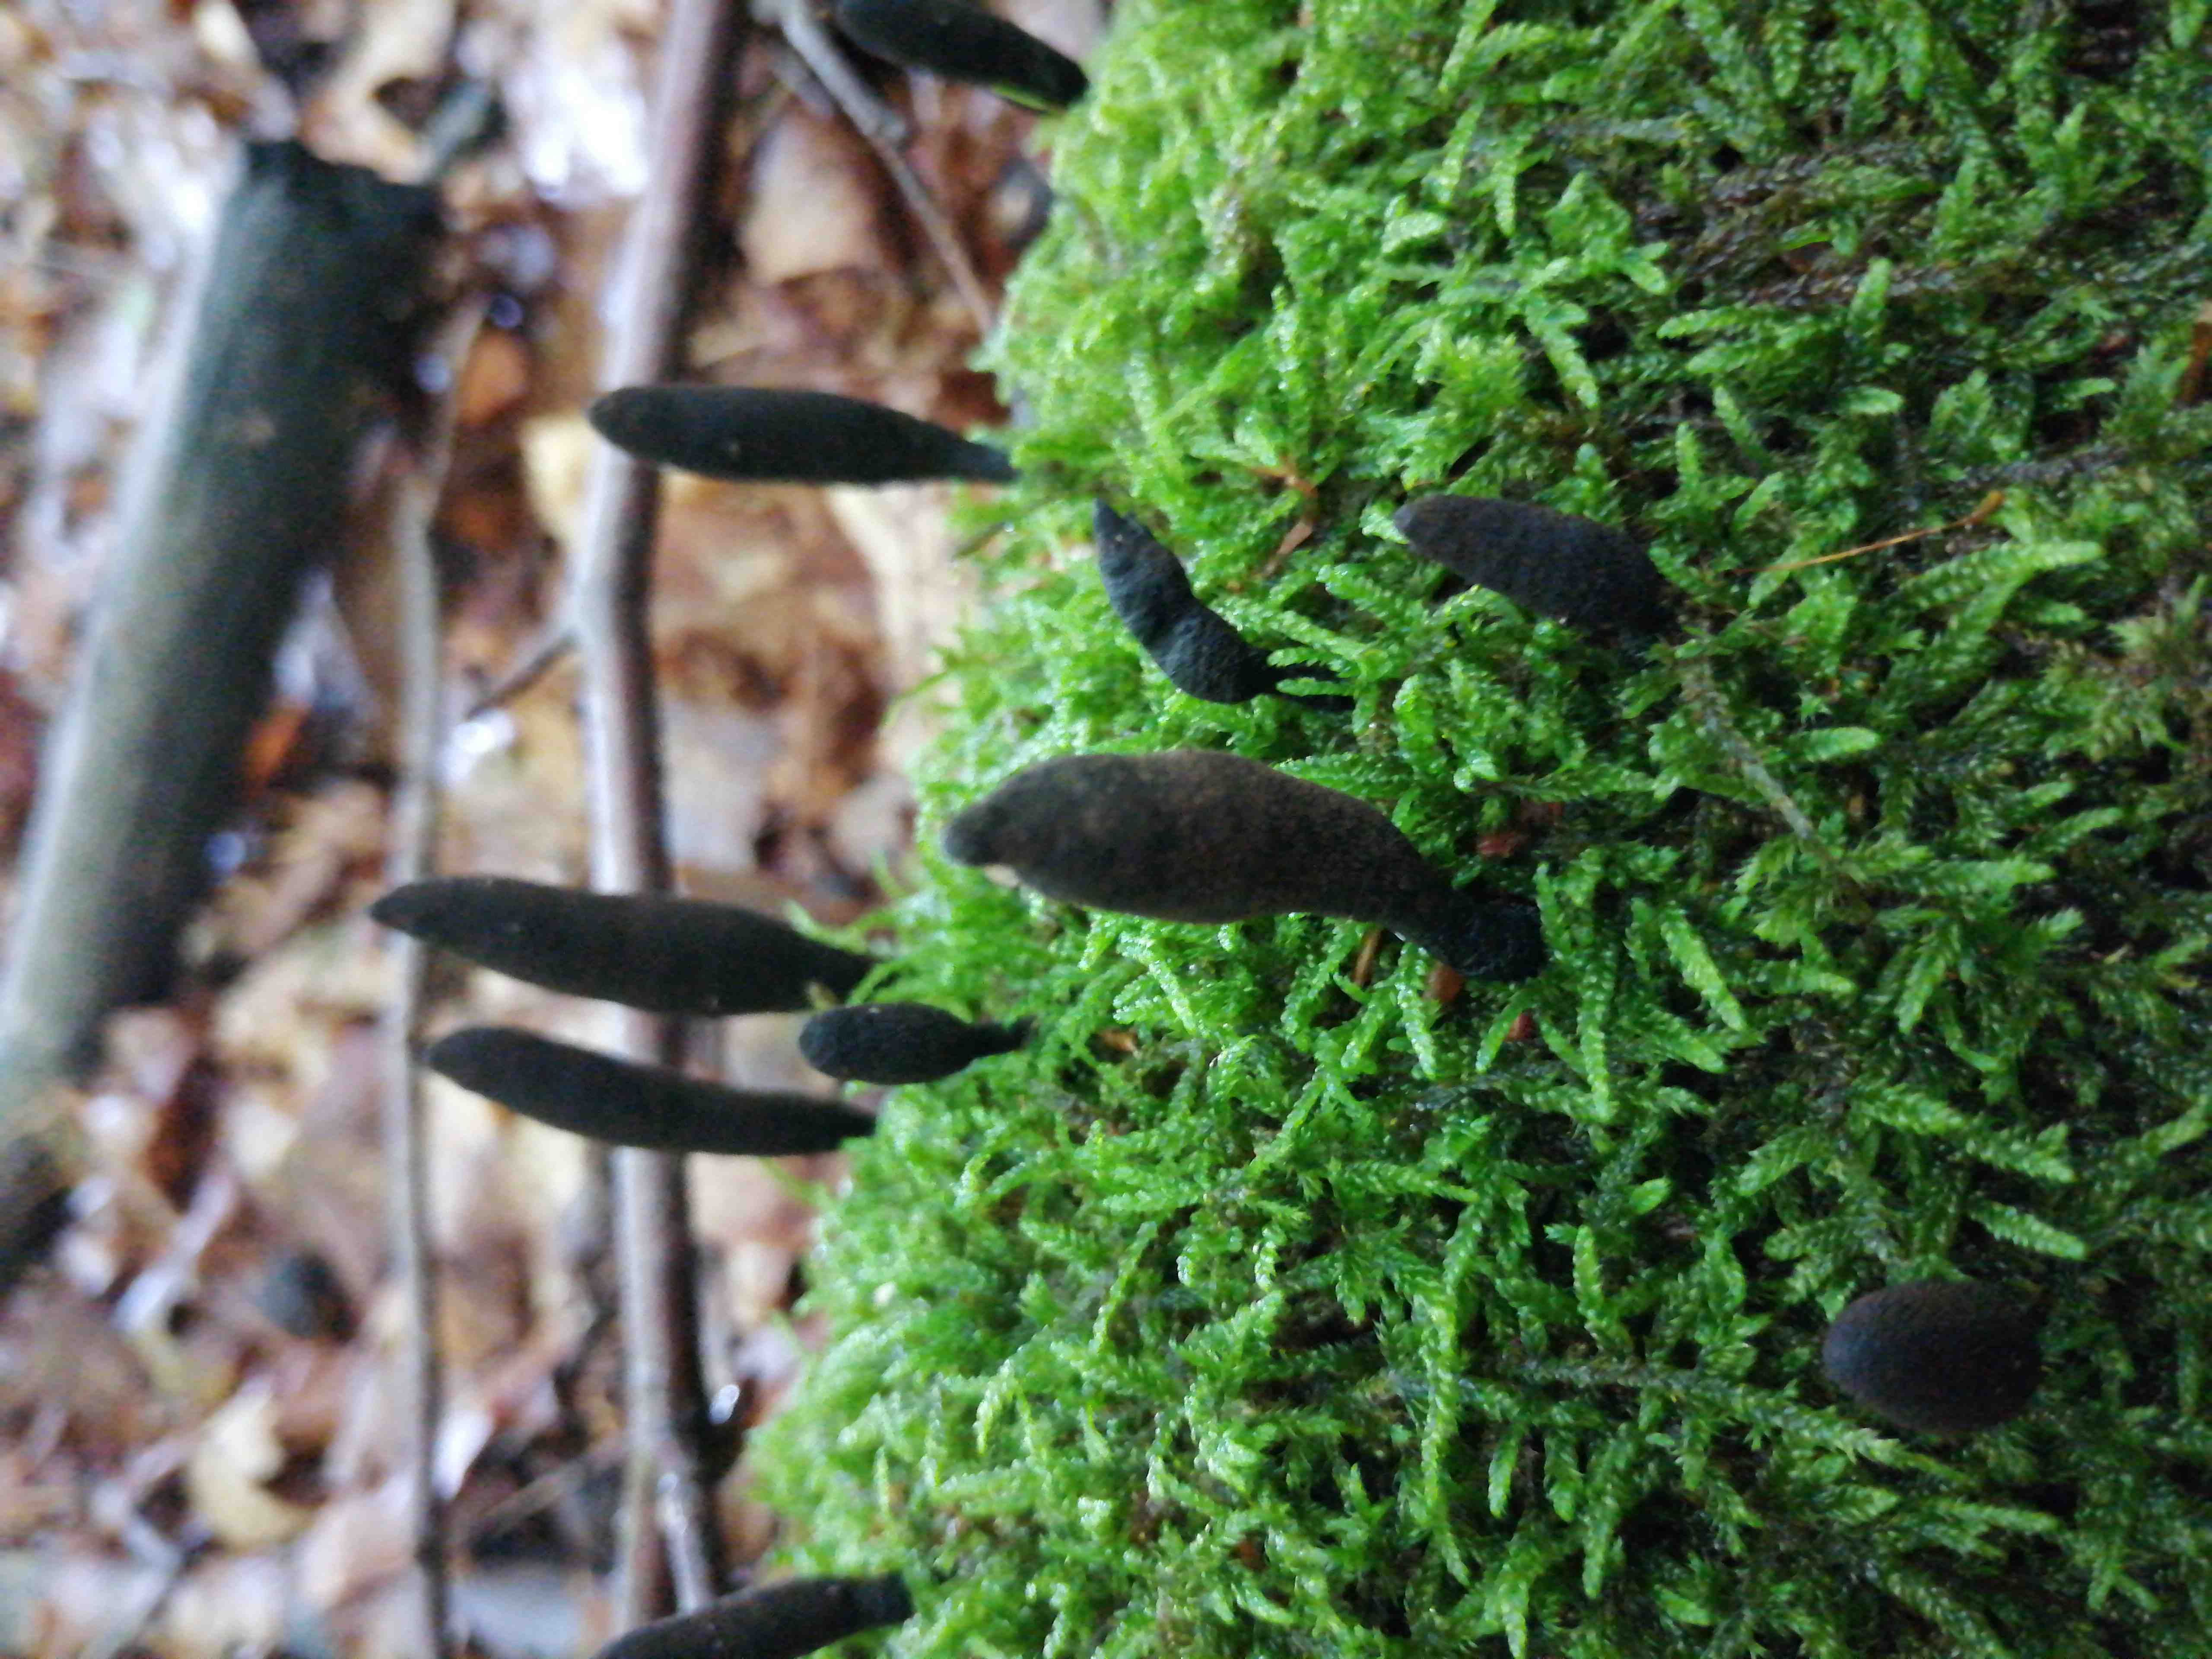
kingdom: Fungi
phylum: Ascomycota
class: Sordariomycetes
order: Xylariales
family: Xylariaceae
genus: Xylaria
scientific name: Xylaria longipes
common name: slank stødsvamp
